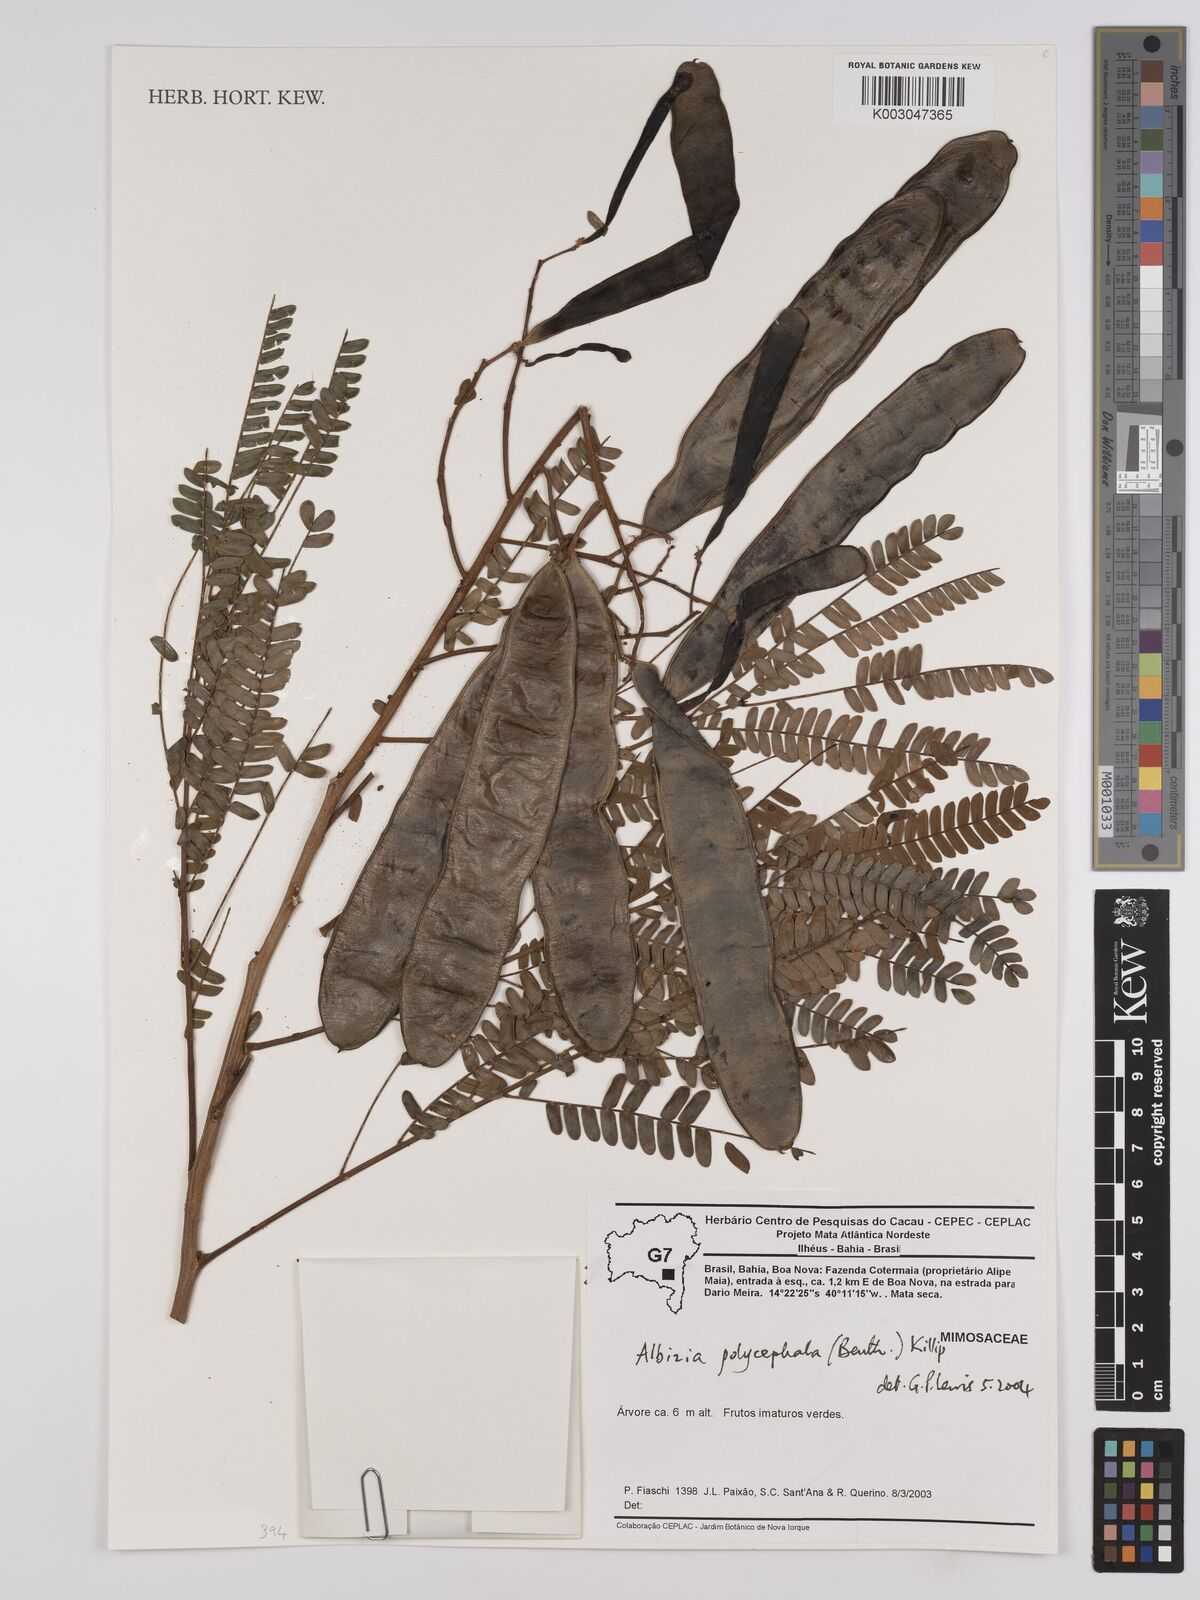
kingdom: Plantae
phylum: Tracheophyta
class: Magnoliopsida
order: Fabales
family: Fabaceae
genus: Albizia
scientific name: Albizia polycephala
